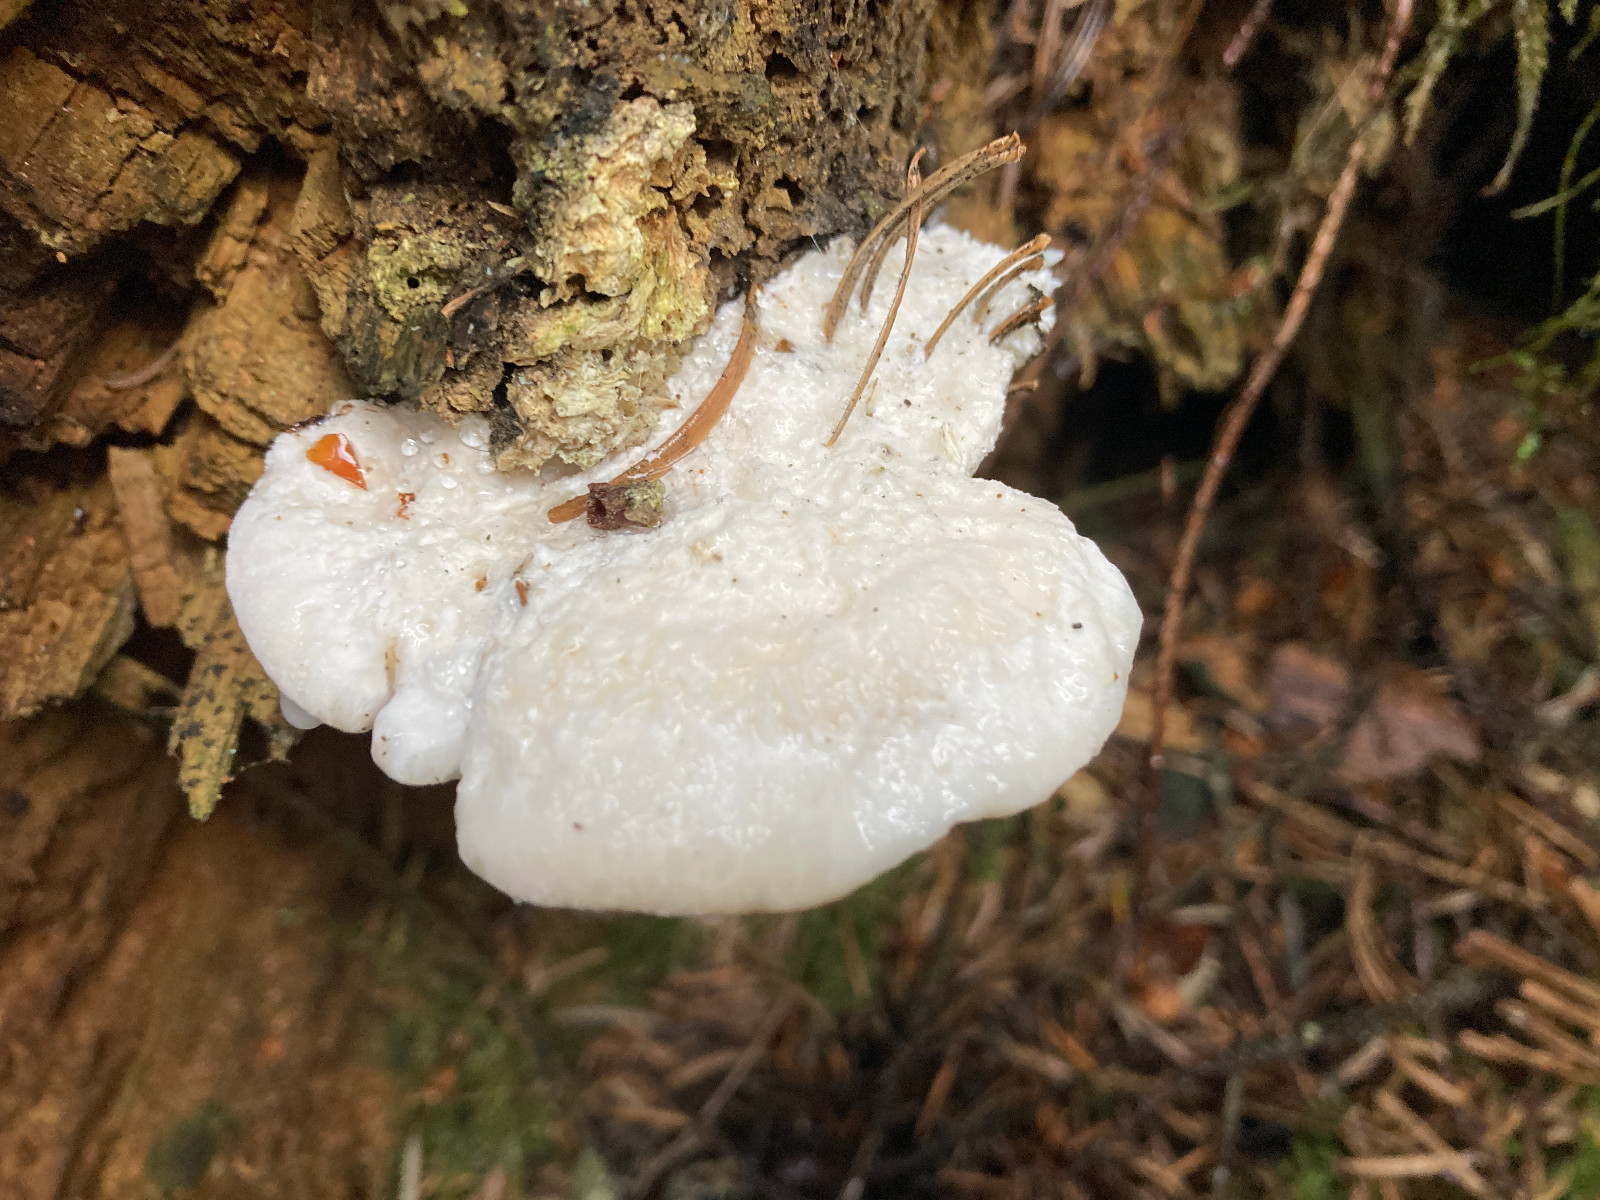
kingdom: Fungi
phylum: Basidiomycota
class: Agaricomycetes
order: Polyporales
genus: Amaropostia
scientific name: Amaropostia stiptica
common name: bitter kødporesvamp
